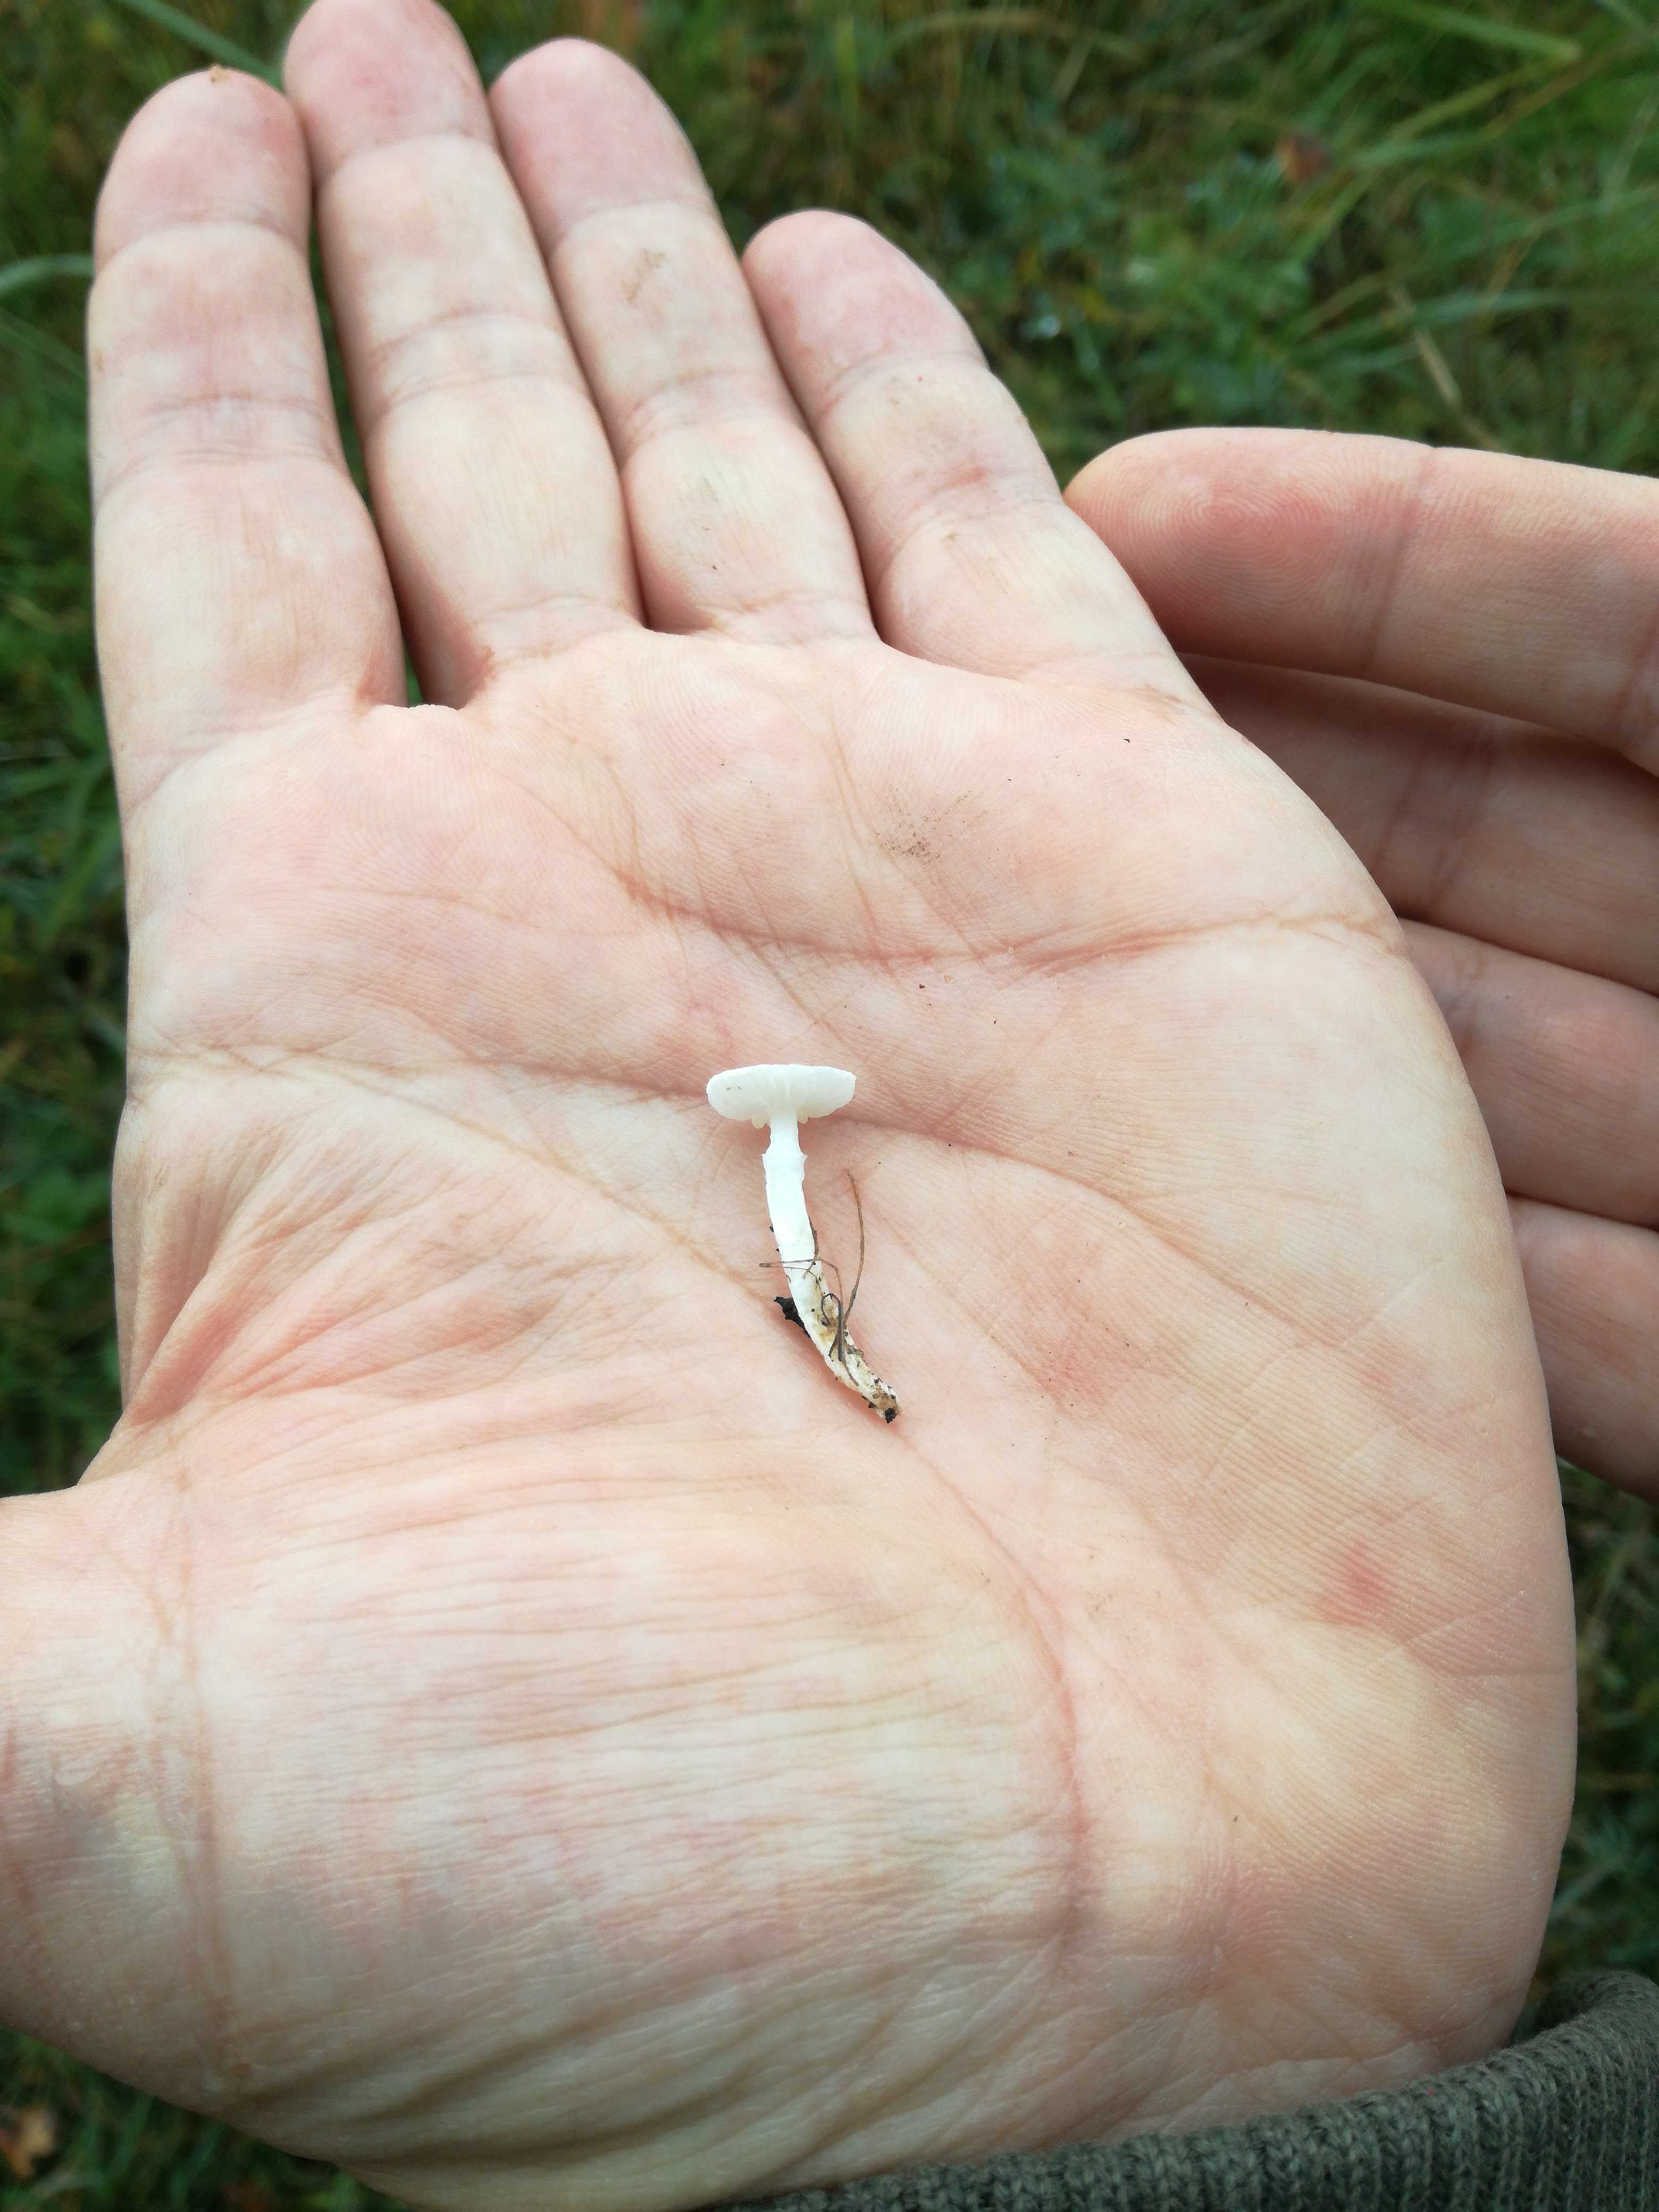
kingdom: Fungi
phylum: Basidiomycota
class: Agaricomycetes
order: Agaricales
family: Lyophyllaceae
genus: Tricholomella
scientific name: Tricholomella constricta
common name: ring-fagerhat
